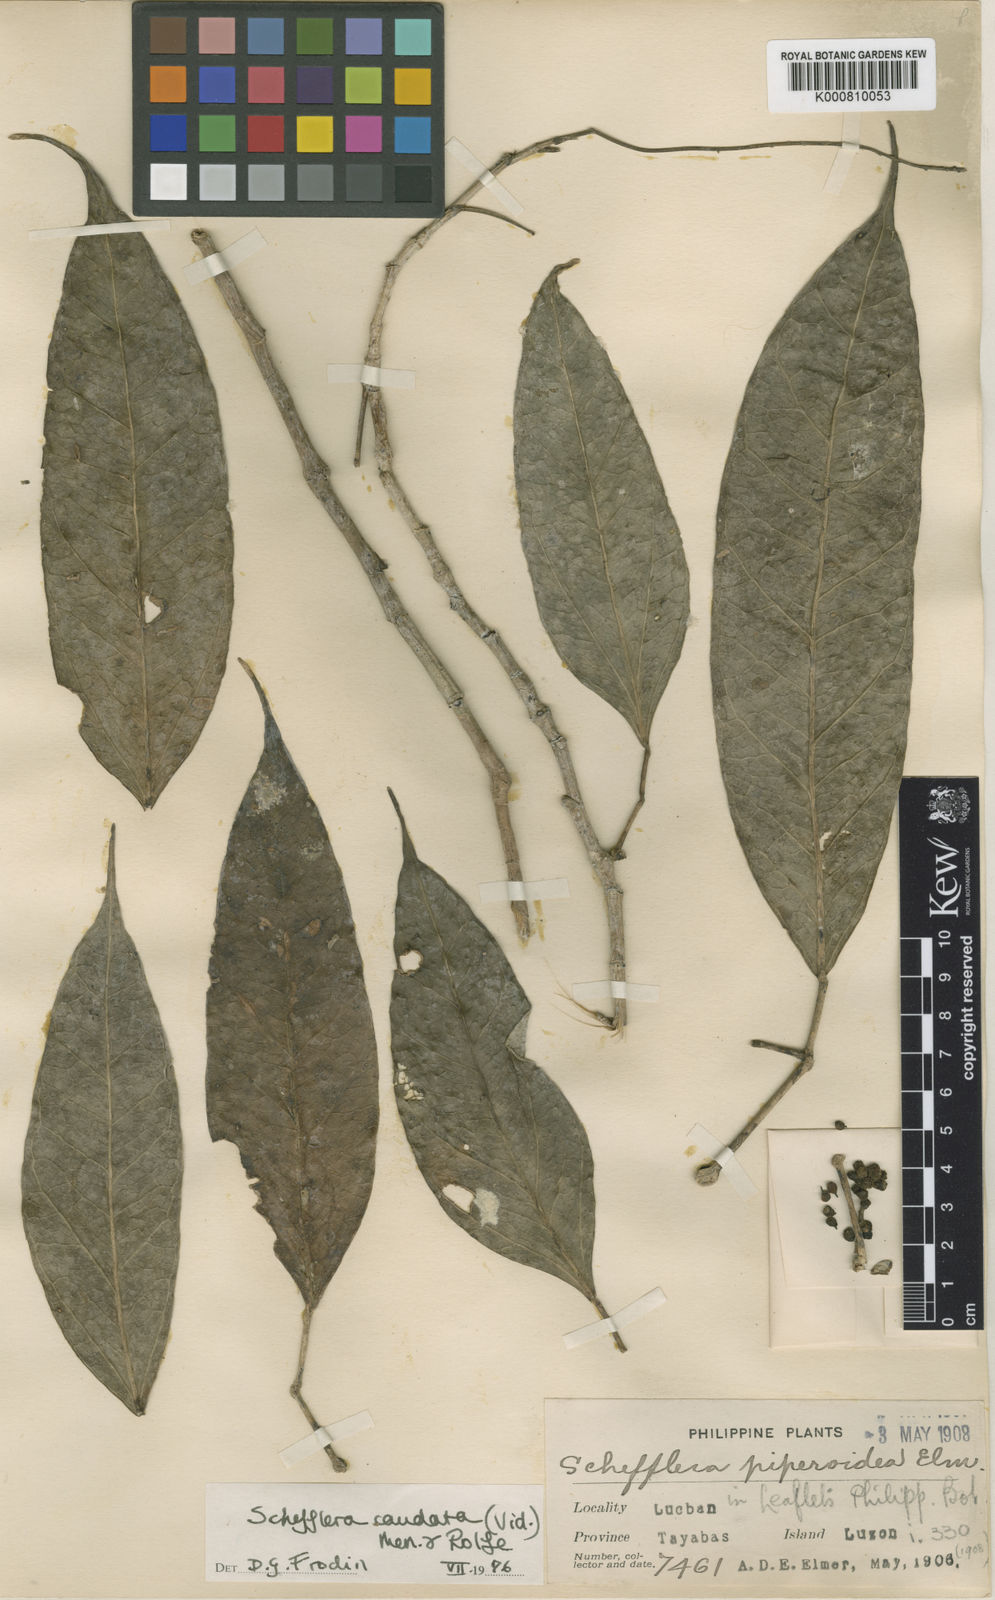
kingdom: Plantae
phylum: Tracheophyta
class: Magnoliopsida
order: Apiales
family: Araliaceae
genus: Heptapleurum
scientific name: Heptapleurum caudatum
